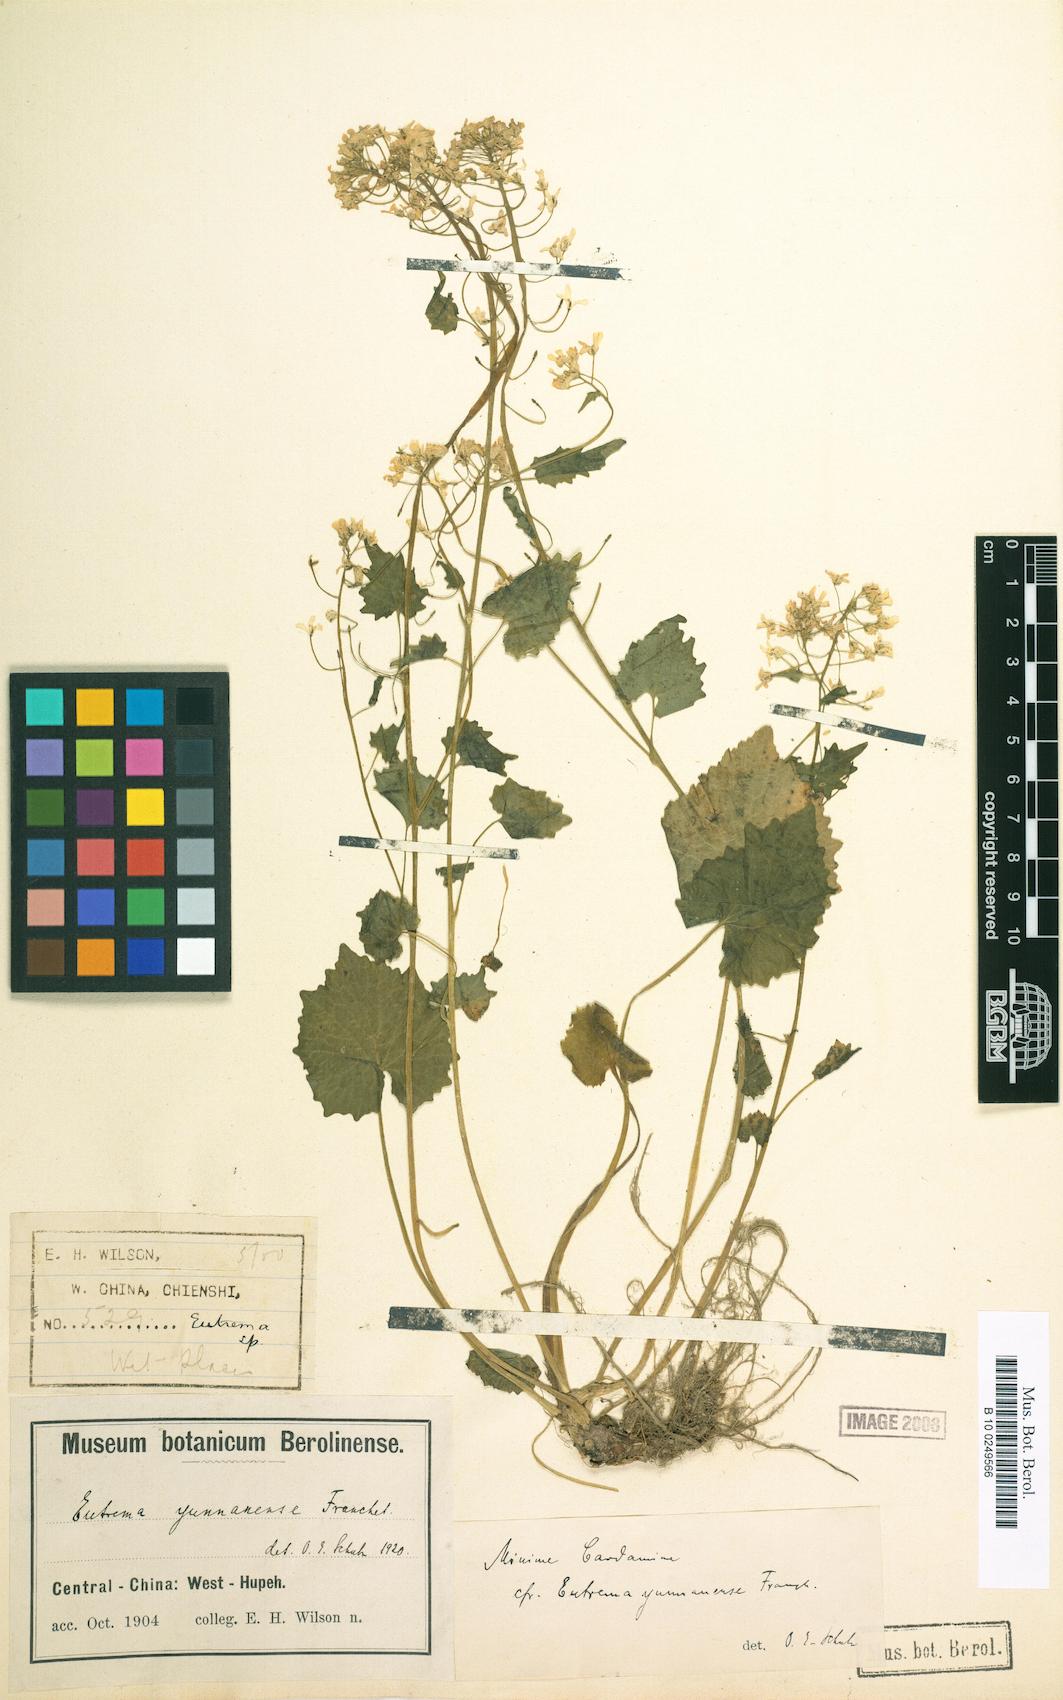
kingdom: Plantae
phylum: Tracheophyta
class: Magnoliopsida
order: Brassicales
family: Brassicaceae
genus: Eutrema
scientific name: Eutrema yunnanense
